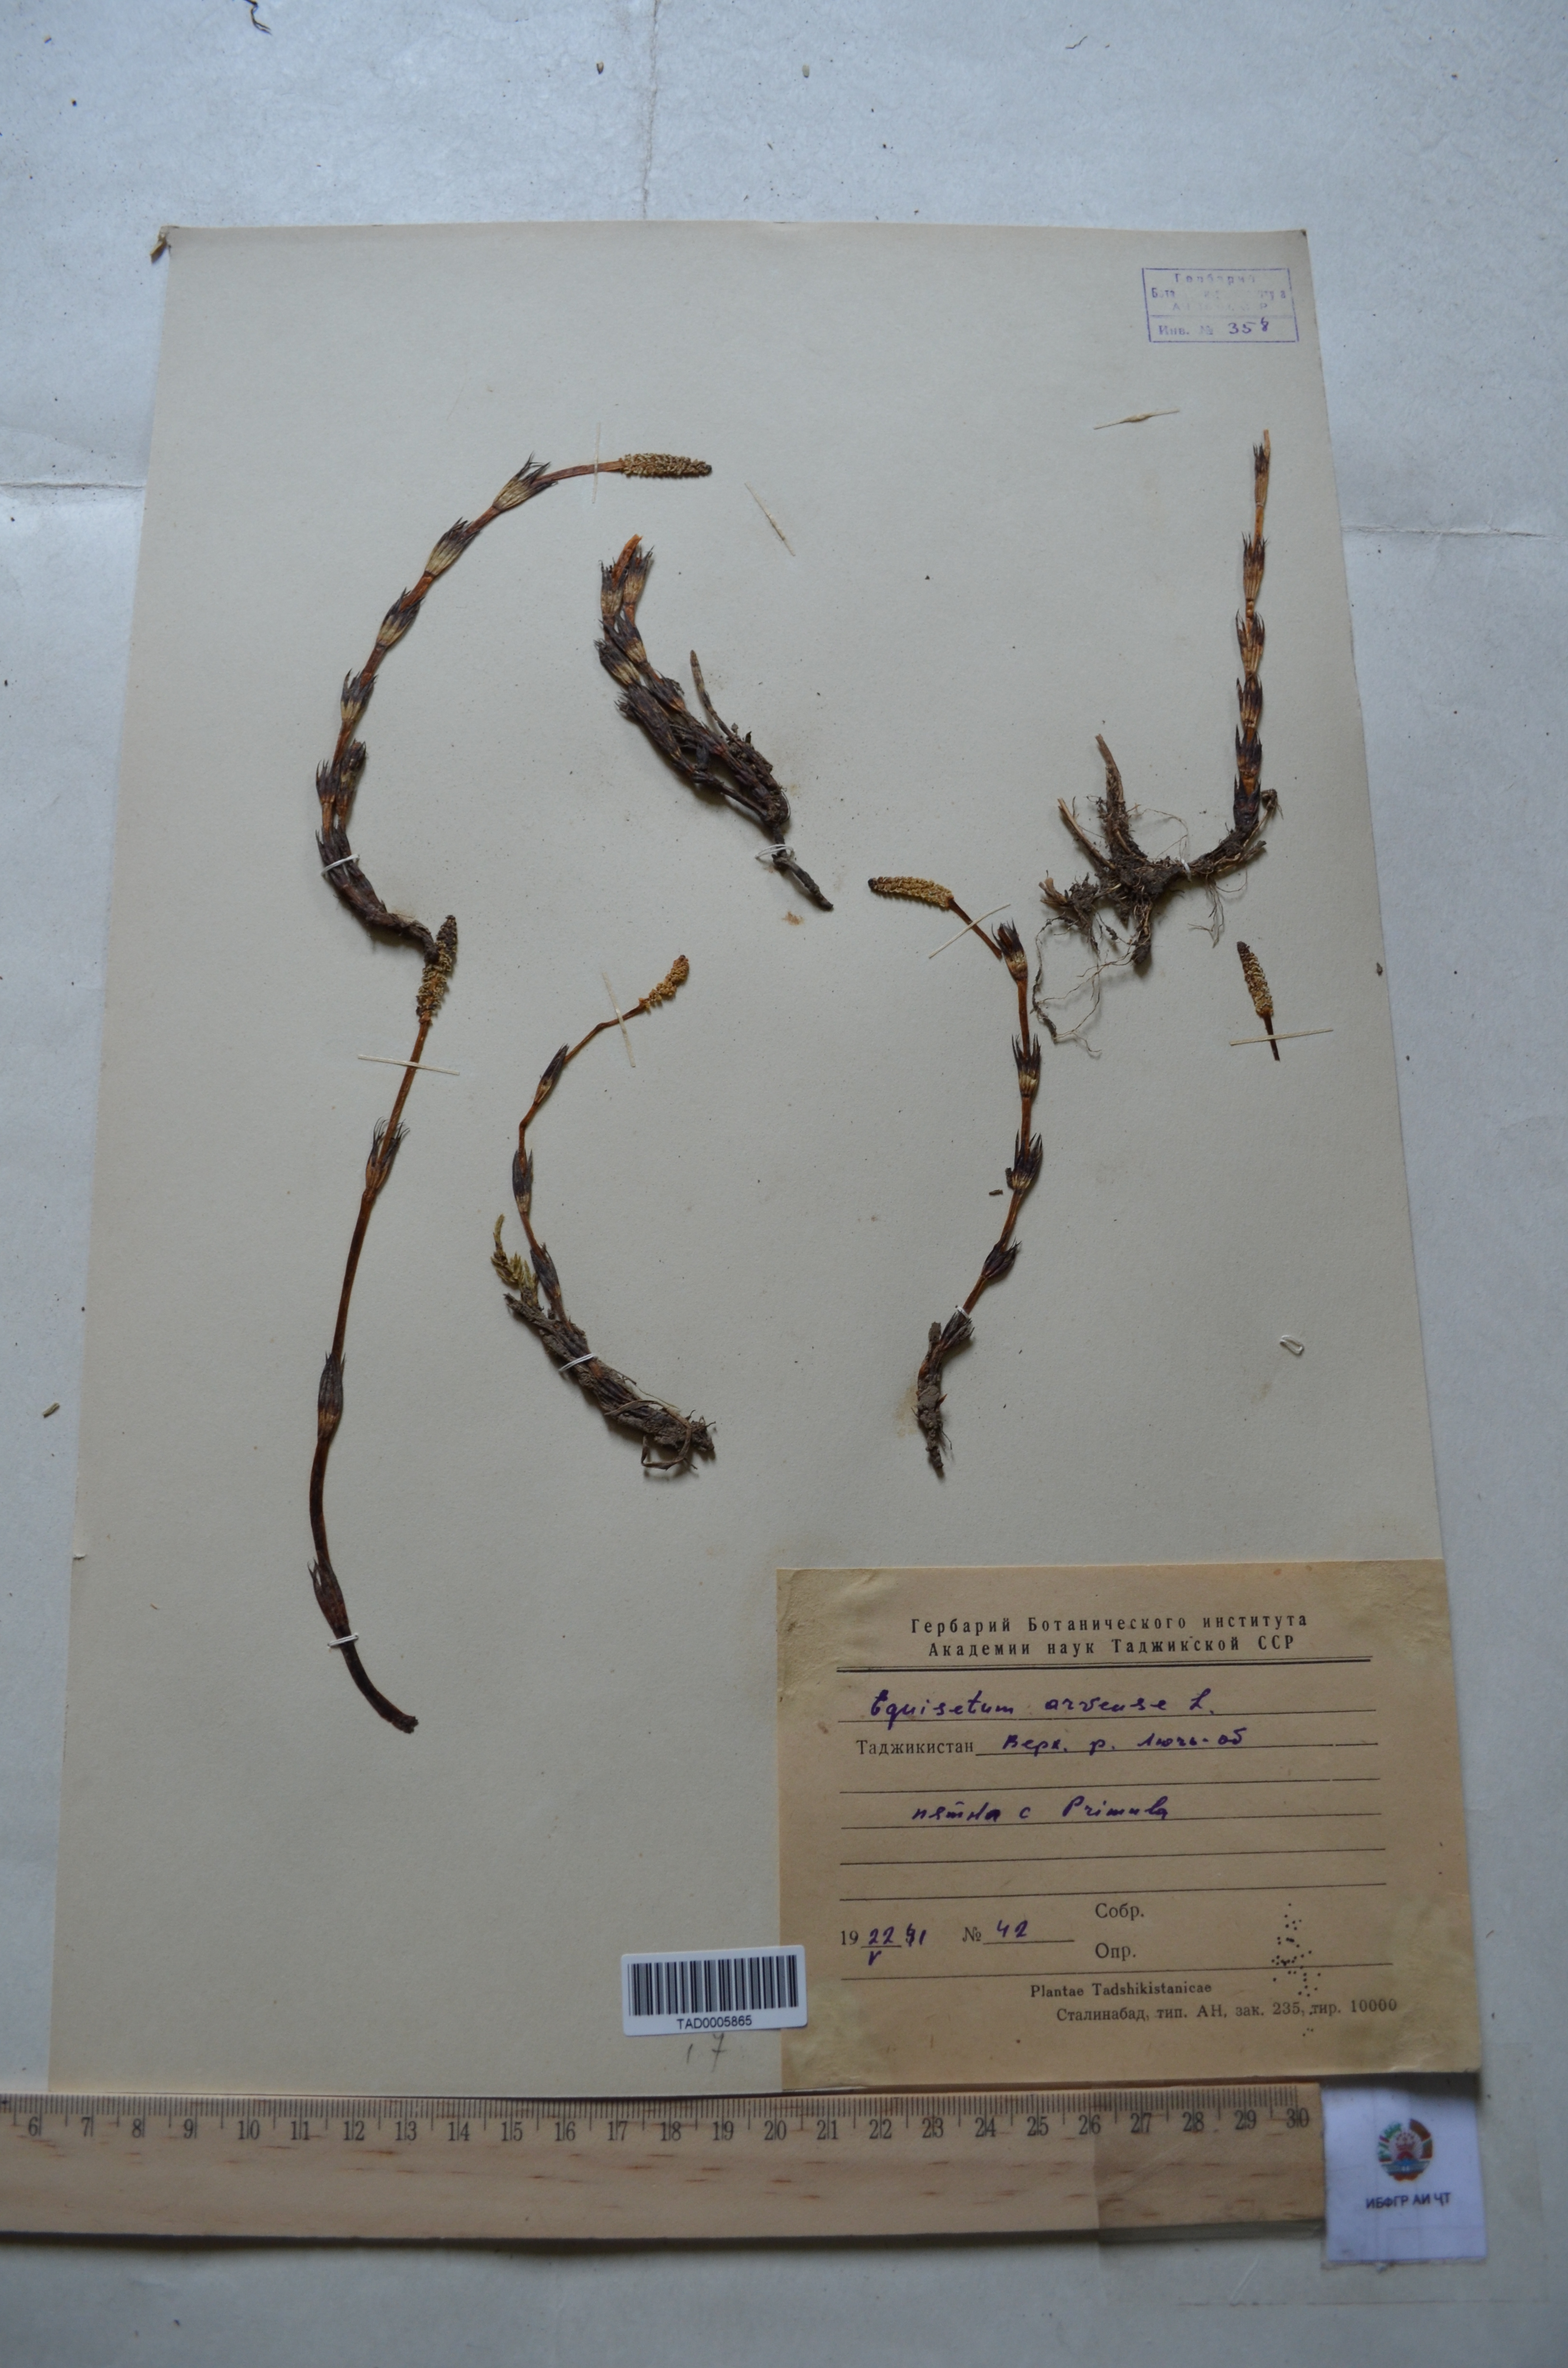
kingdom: Plantae
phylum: Tracheophyta
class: Polypodiopsida
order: Equisetales
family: Equisetaceae
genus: Equisetum
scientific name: Equisetum arvense
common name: Field horsetail
